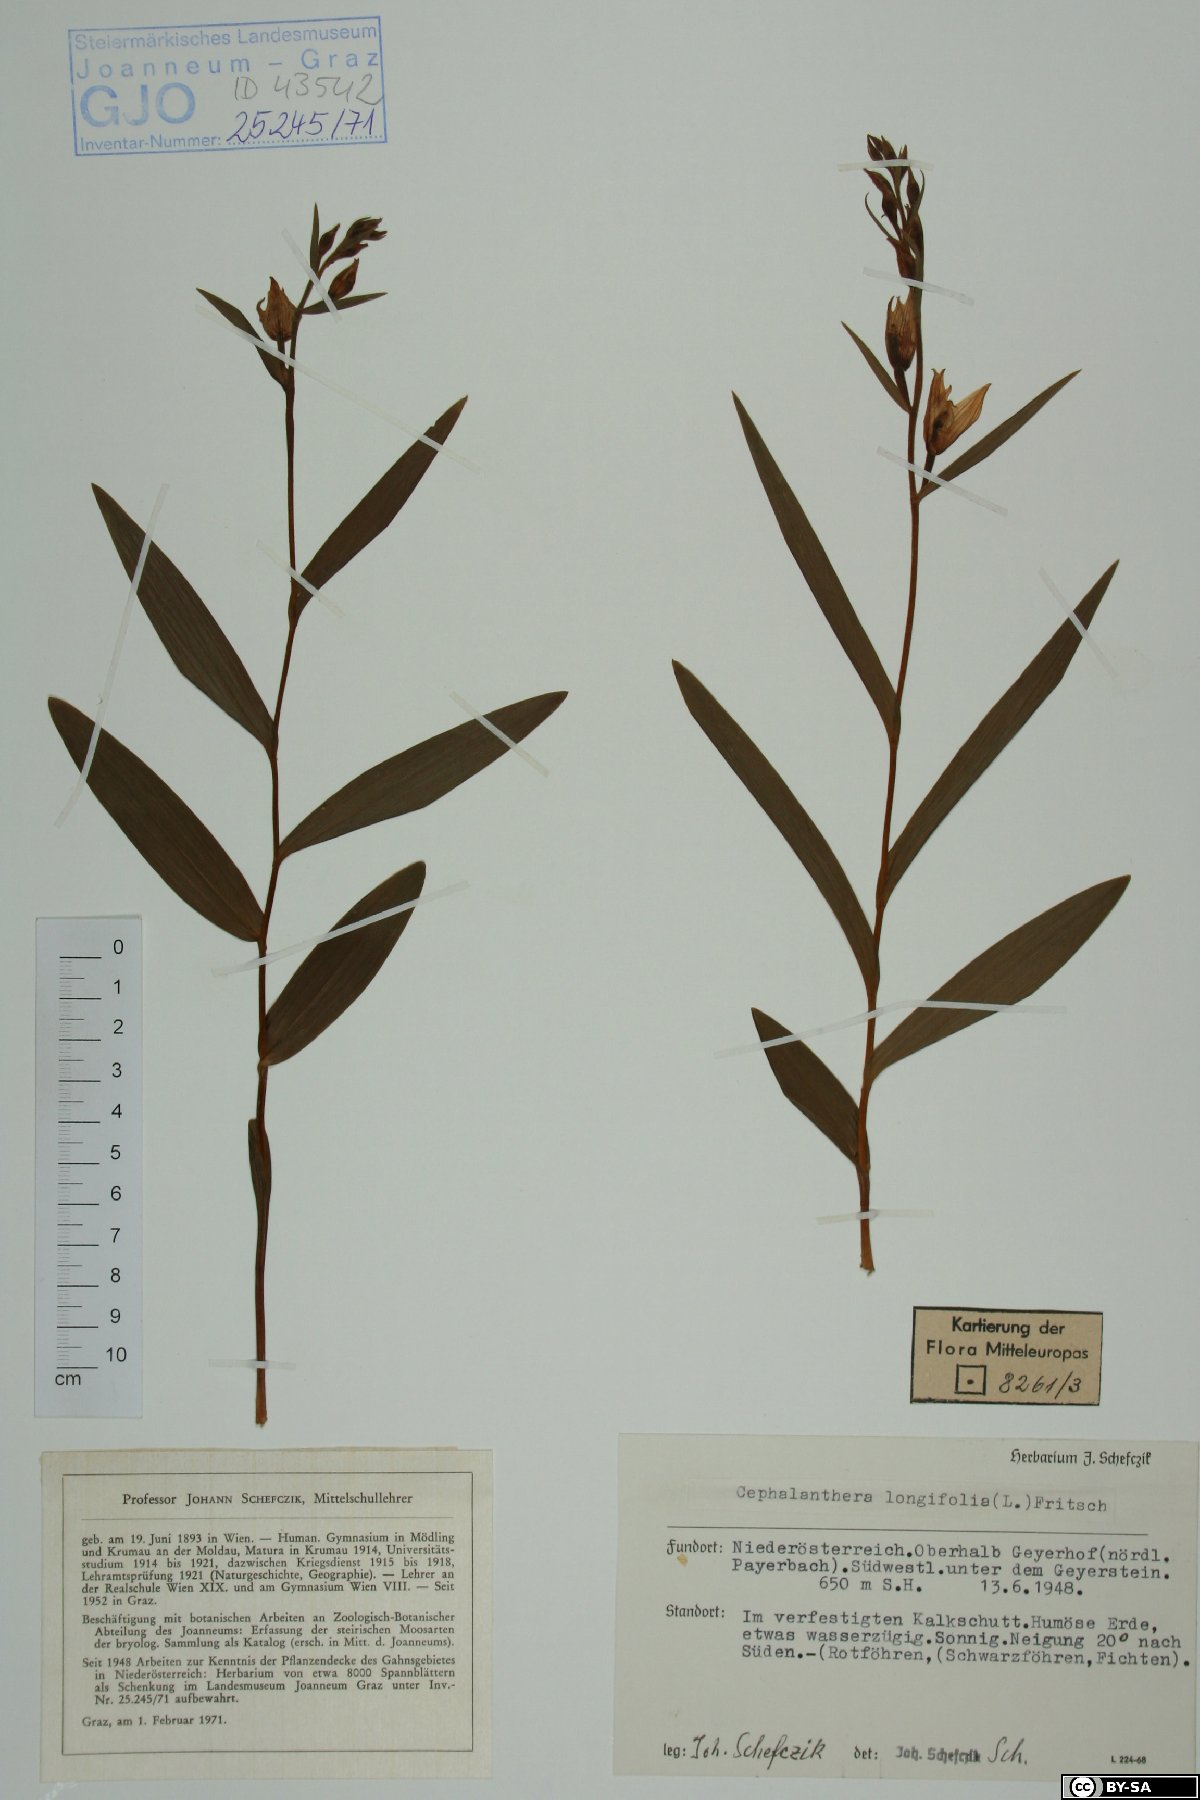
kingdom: Plantae
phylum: Tracheophyta
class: Liliopsida
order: Asparagales
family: Orchidaceae
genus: Cephalanthera
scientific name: Cephalanthera longifolia
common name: Narrow-leaved helleborine
